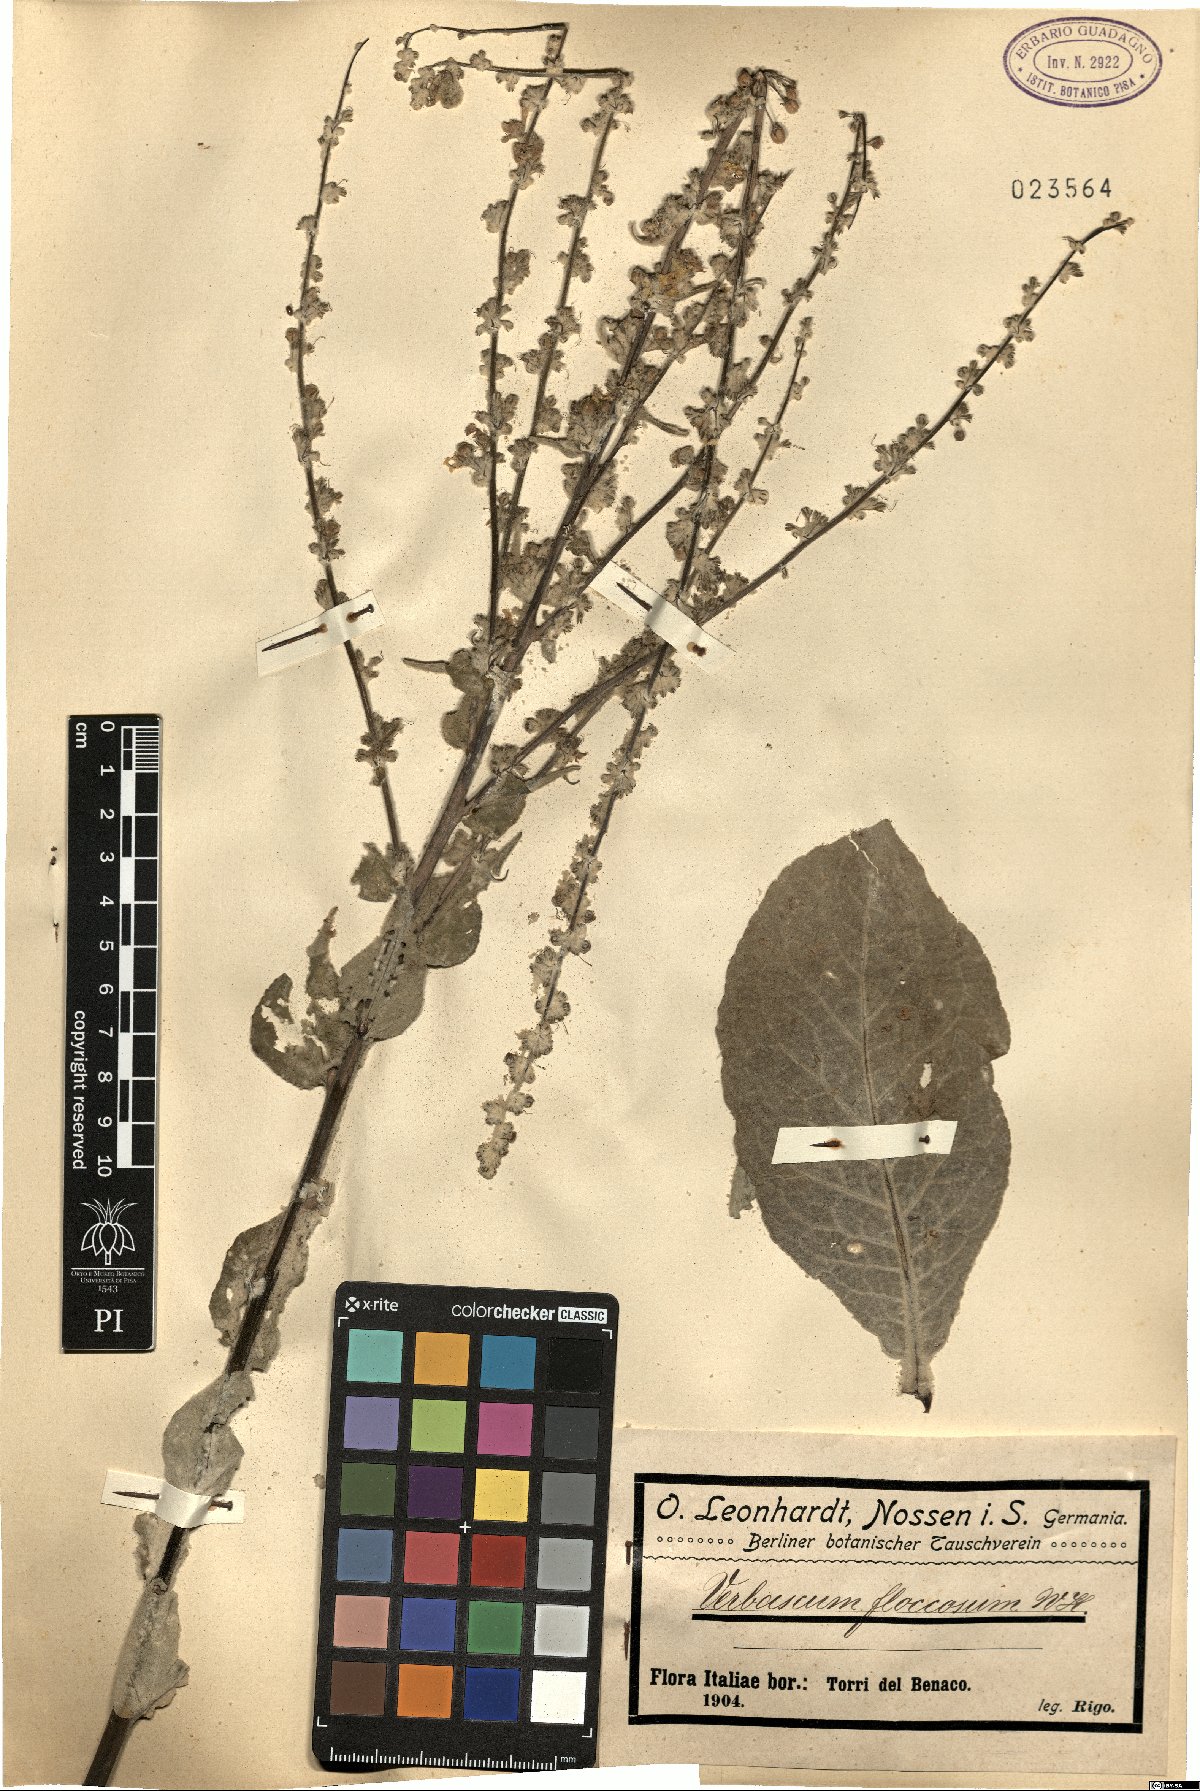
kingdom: Plantae
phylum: Tracheophyta
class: Magnoliopsida
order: Lamiales
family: Scrophulariaceae
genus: Verbascum
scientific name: Verbascum pulverulentum
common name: Broad-leaf mullein
